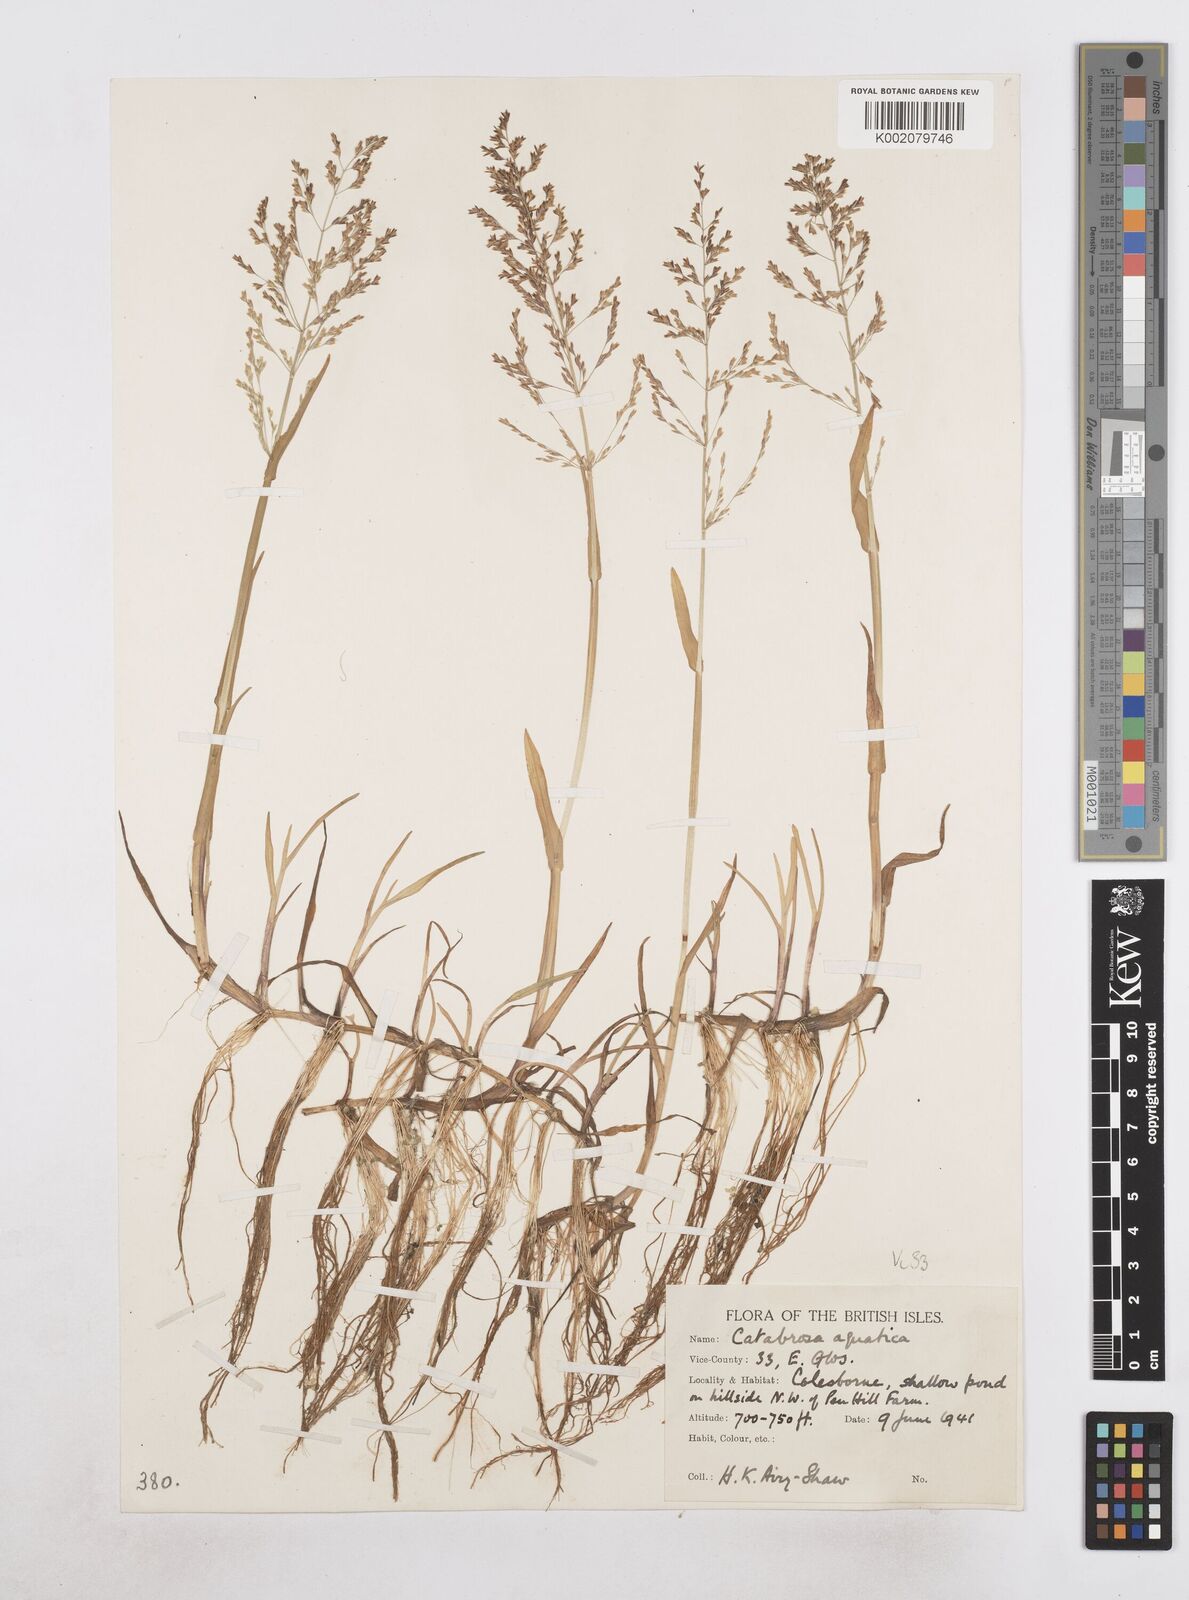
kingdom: Plantae
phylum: Tracheophyta
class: Liliopsida
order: Poales
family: Poaceae
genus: Catabrosa
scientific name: Catabrosa aquatica
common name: Whorl-grass
